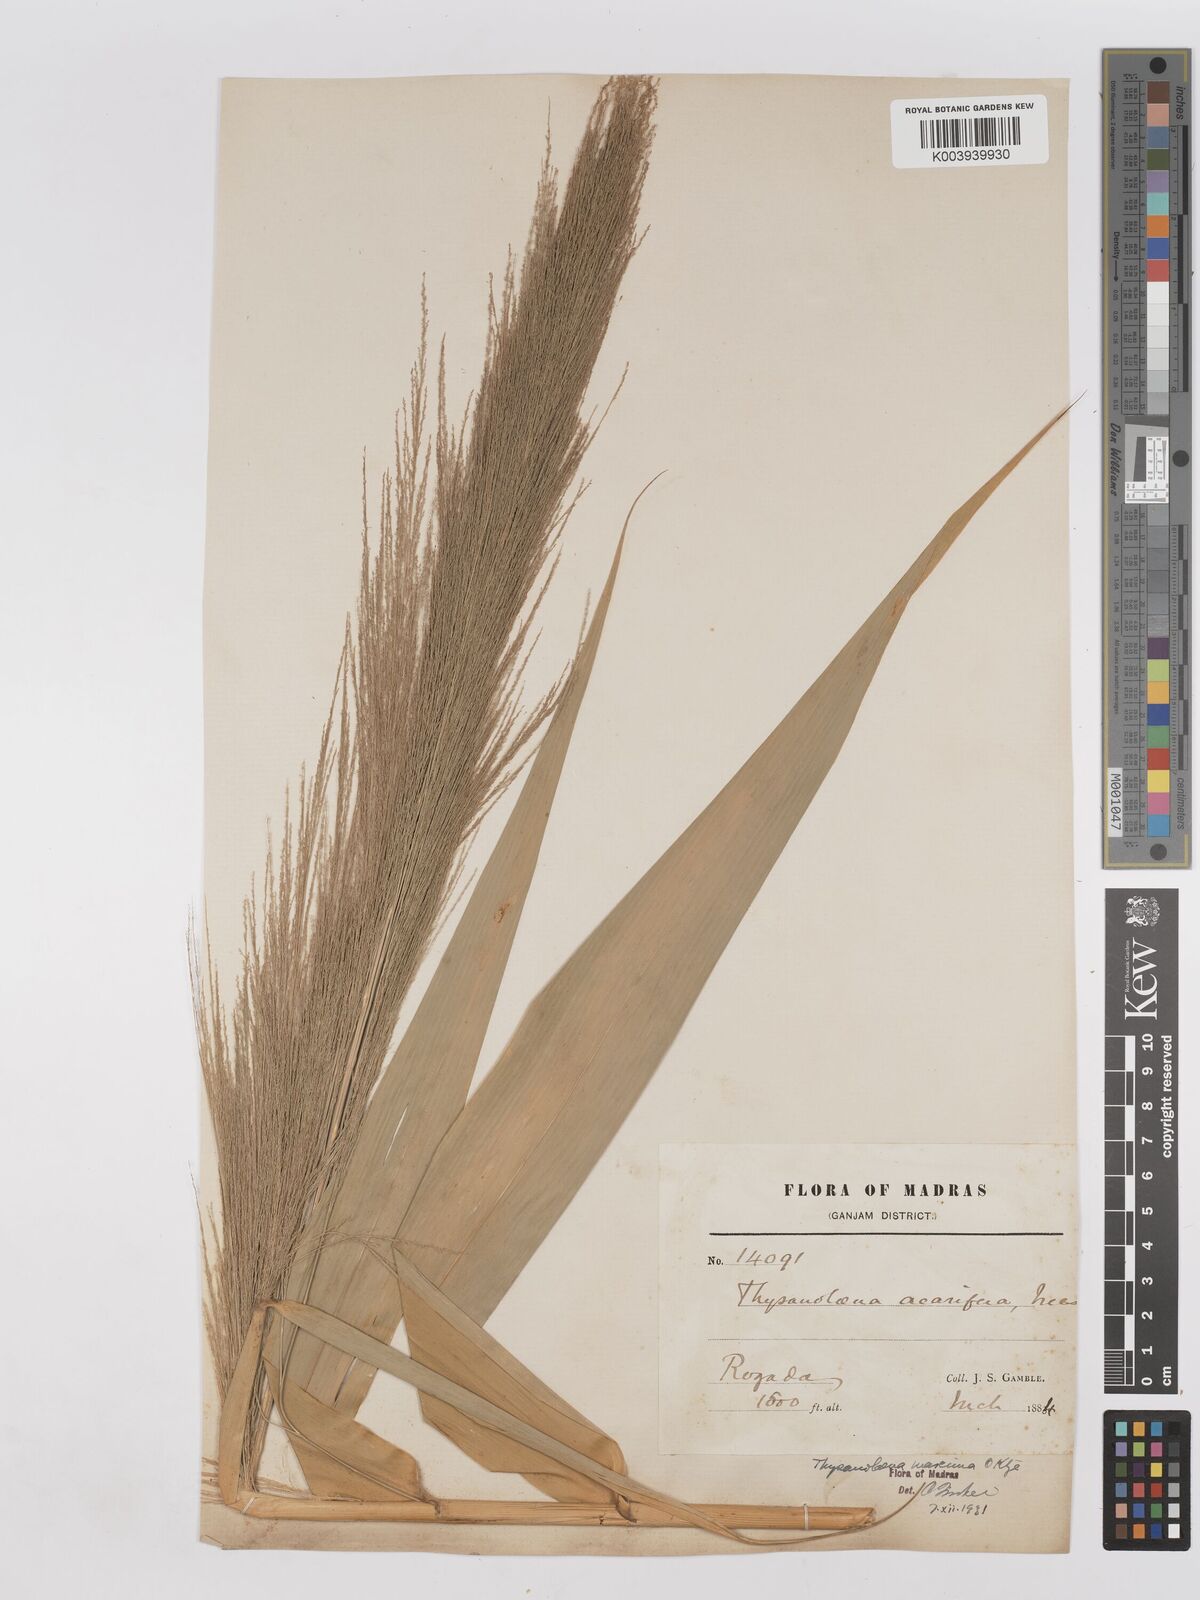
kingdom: Plantae
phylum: Tracheophyta
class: Liliopsida
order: Poales
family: Poaceae
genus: Thysanolaena
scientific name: Thysanolaena latifolia
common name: Tiger grass
